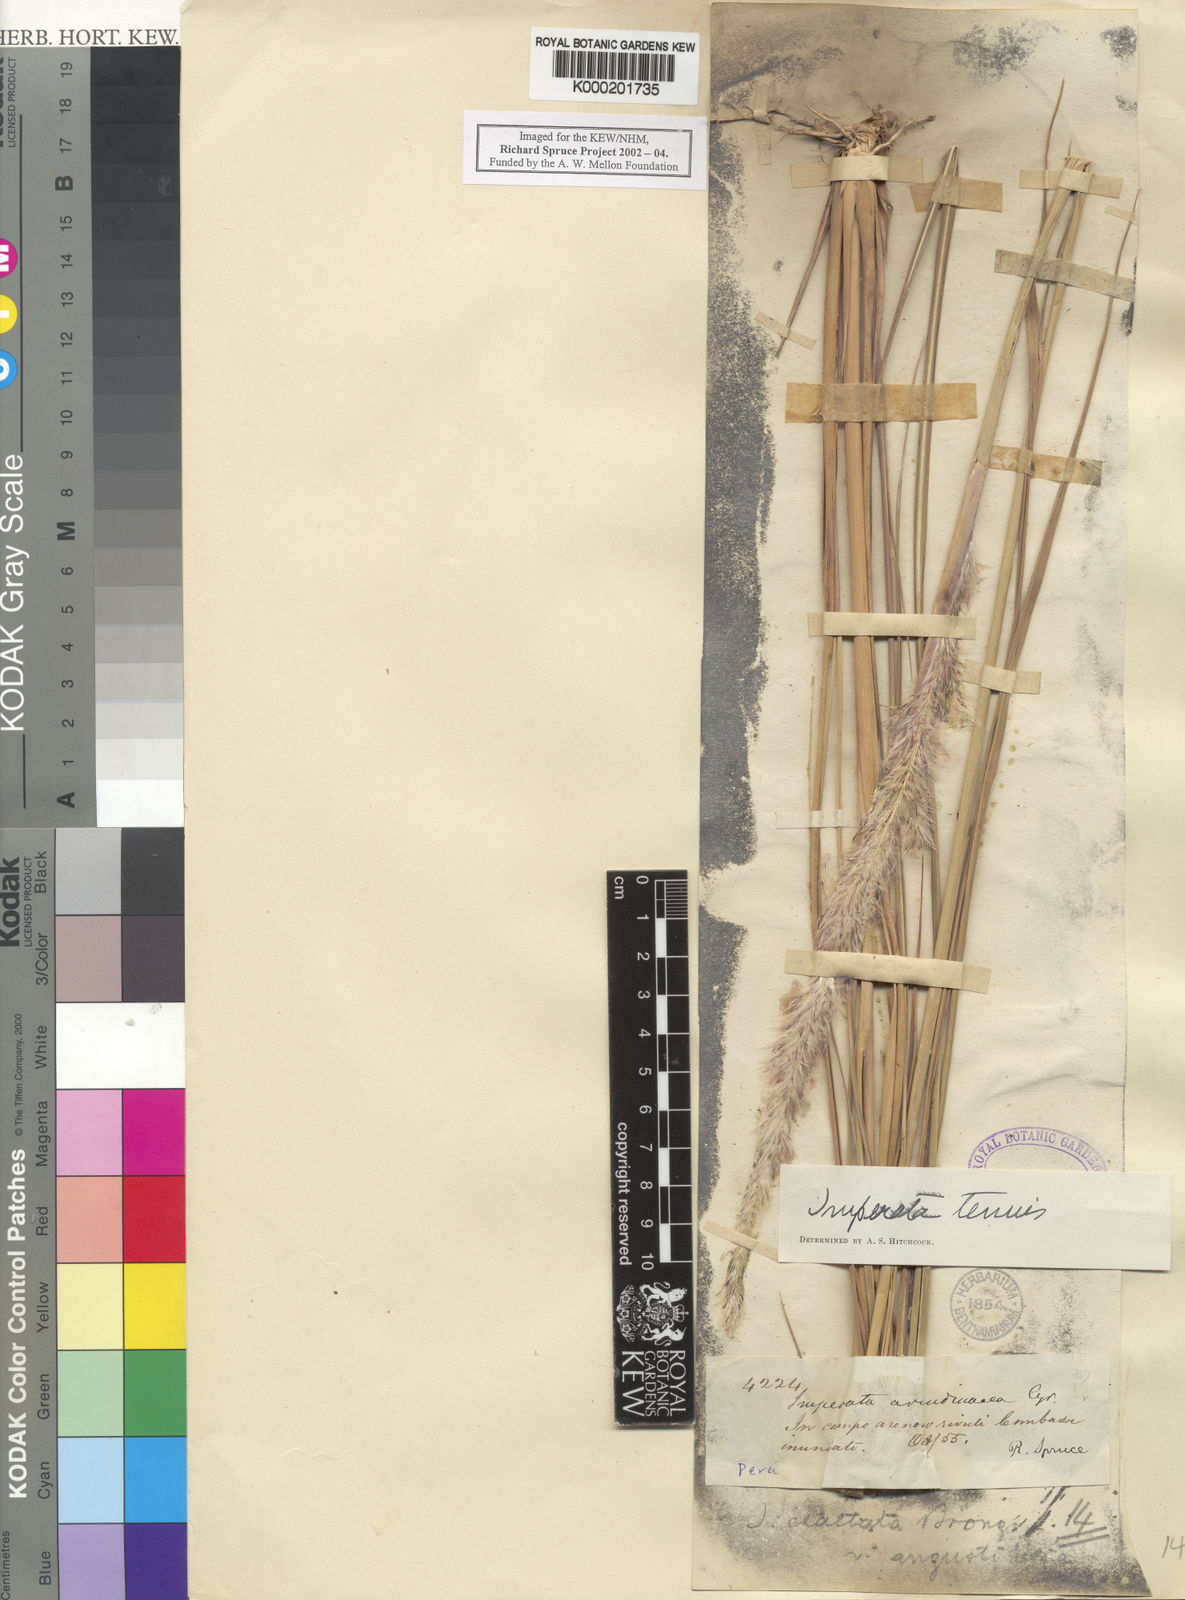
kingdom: Plantae
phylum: Tracheophyta
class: Liliopsida
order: Poales
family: Poaceae
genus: Imperata
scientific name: Imperata tenuis
